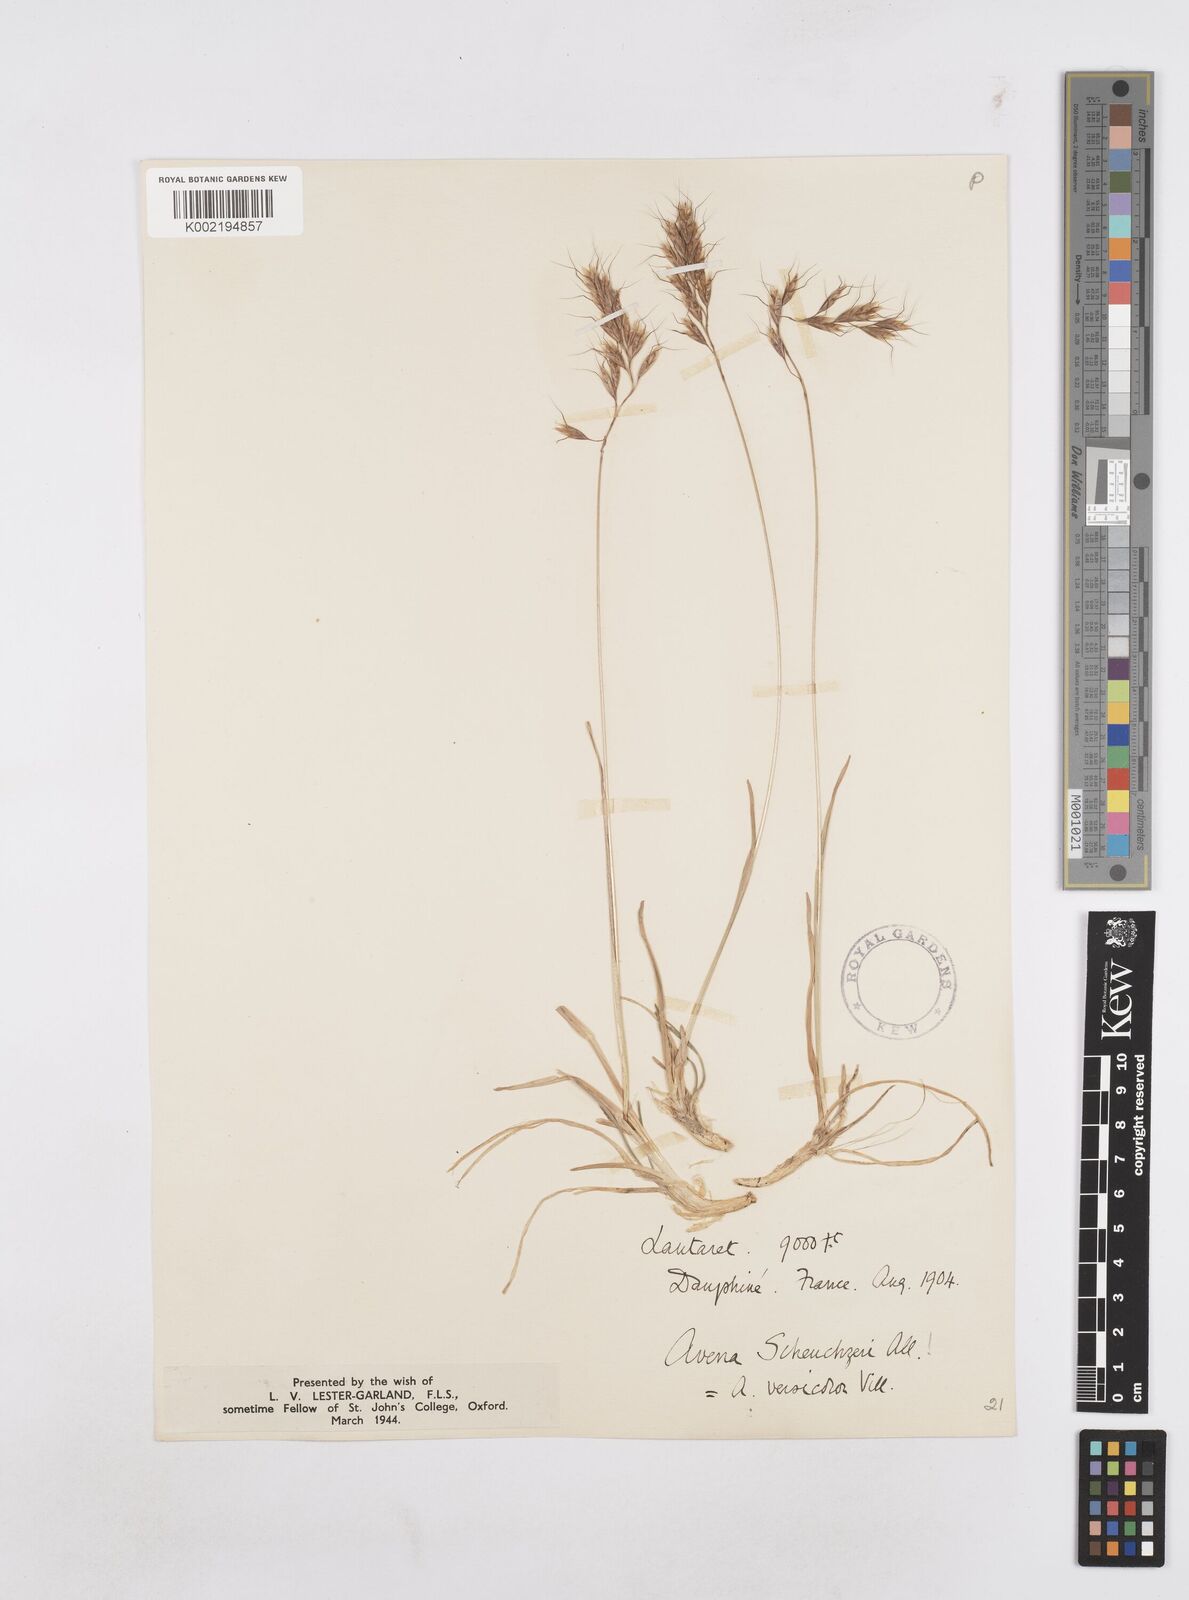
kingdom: Plantae
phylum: Tracheophyta
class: Liliopsida
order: Poales
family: Poaceae
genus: Helictochloa
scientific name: Helictochloa versicolor
